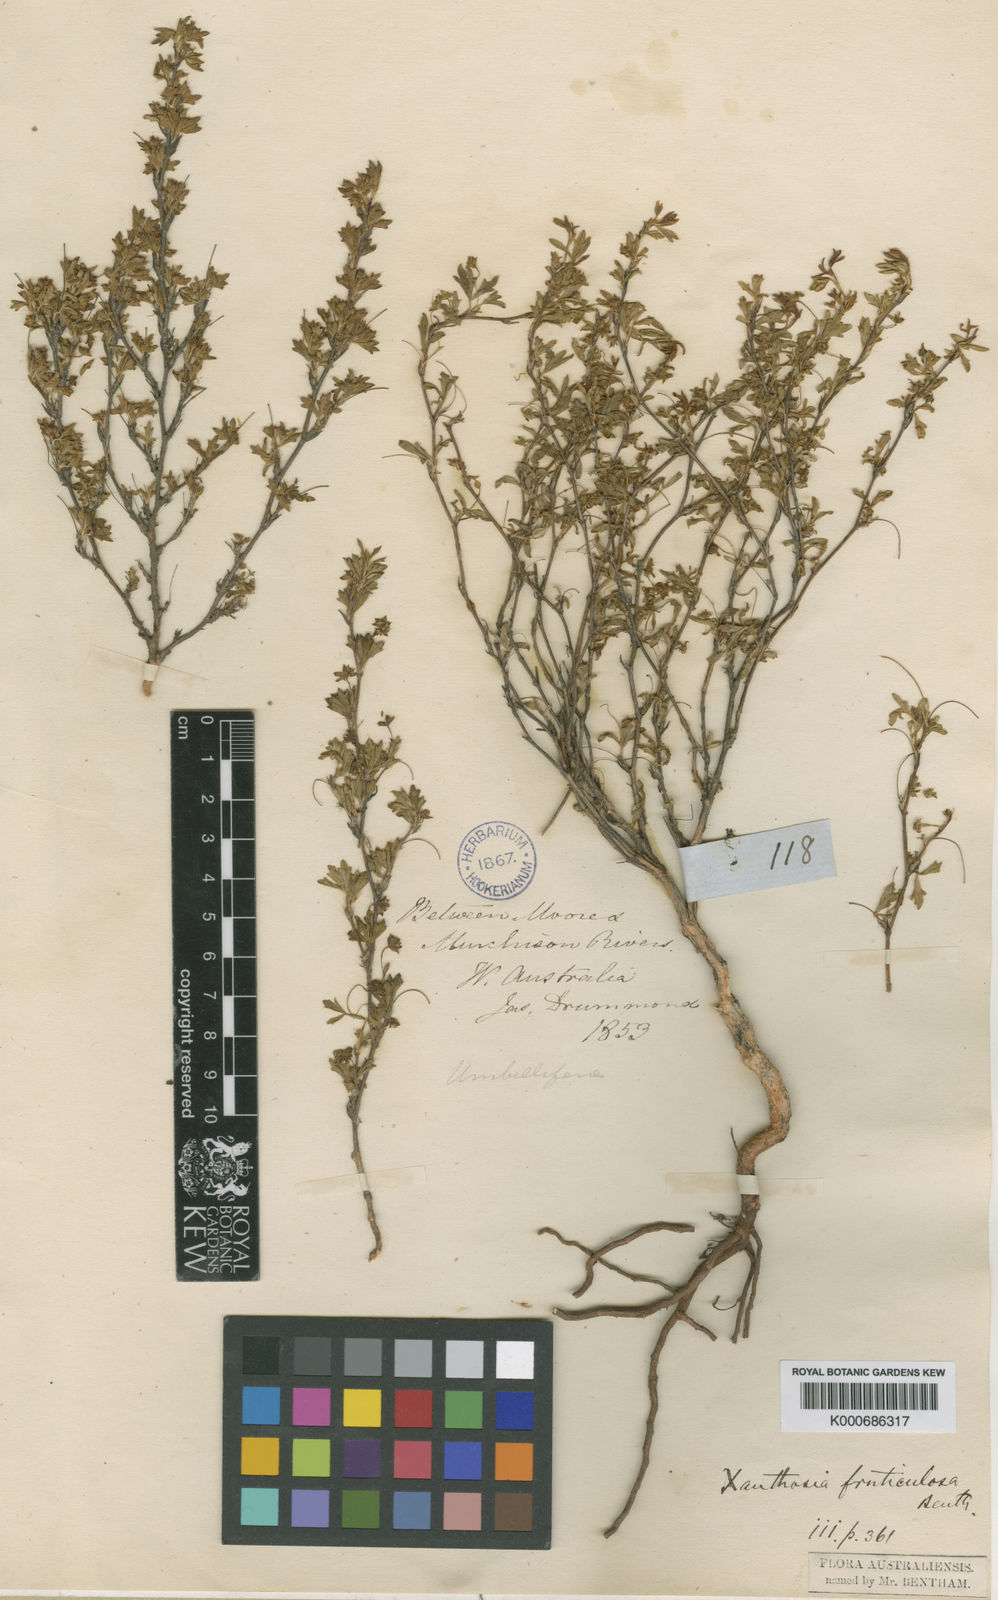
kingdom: Plantae
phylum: Tracheophyta
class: Magnoliopsida
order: Apiales
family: Apiaceae
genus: Xanthosia
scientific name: Xanthosia fruticulosa
